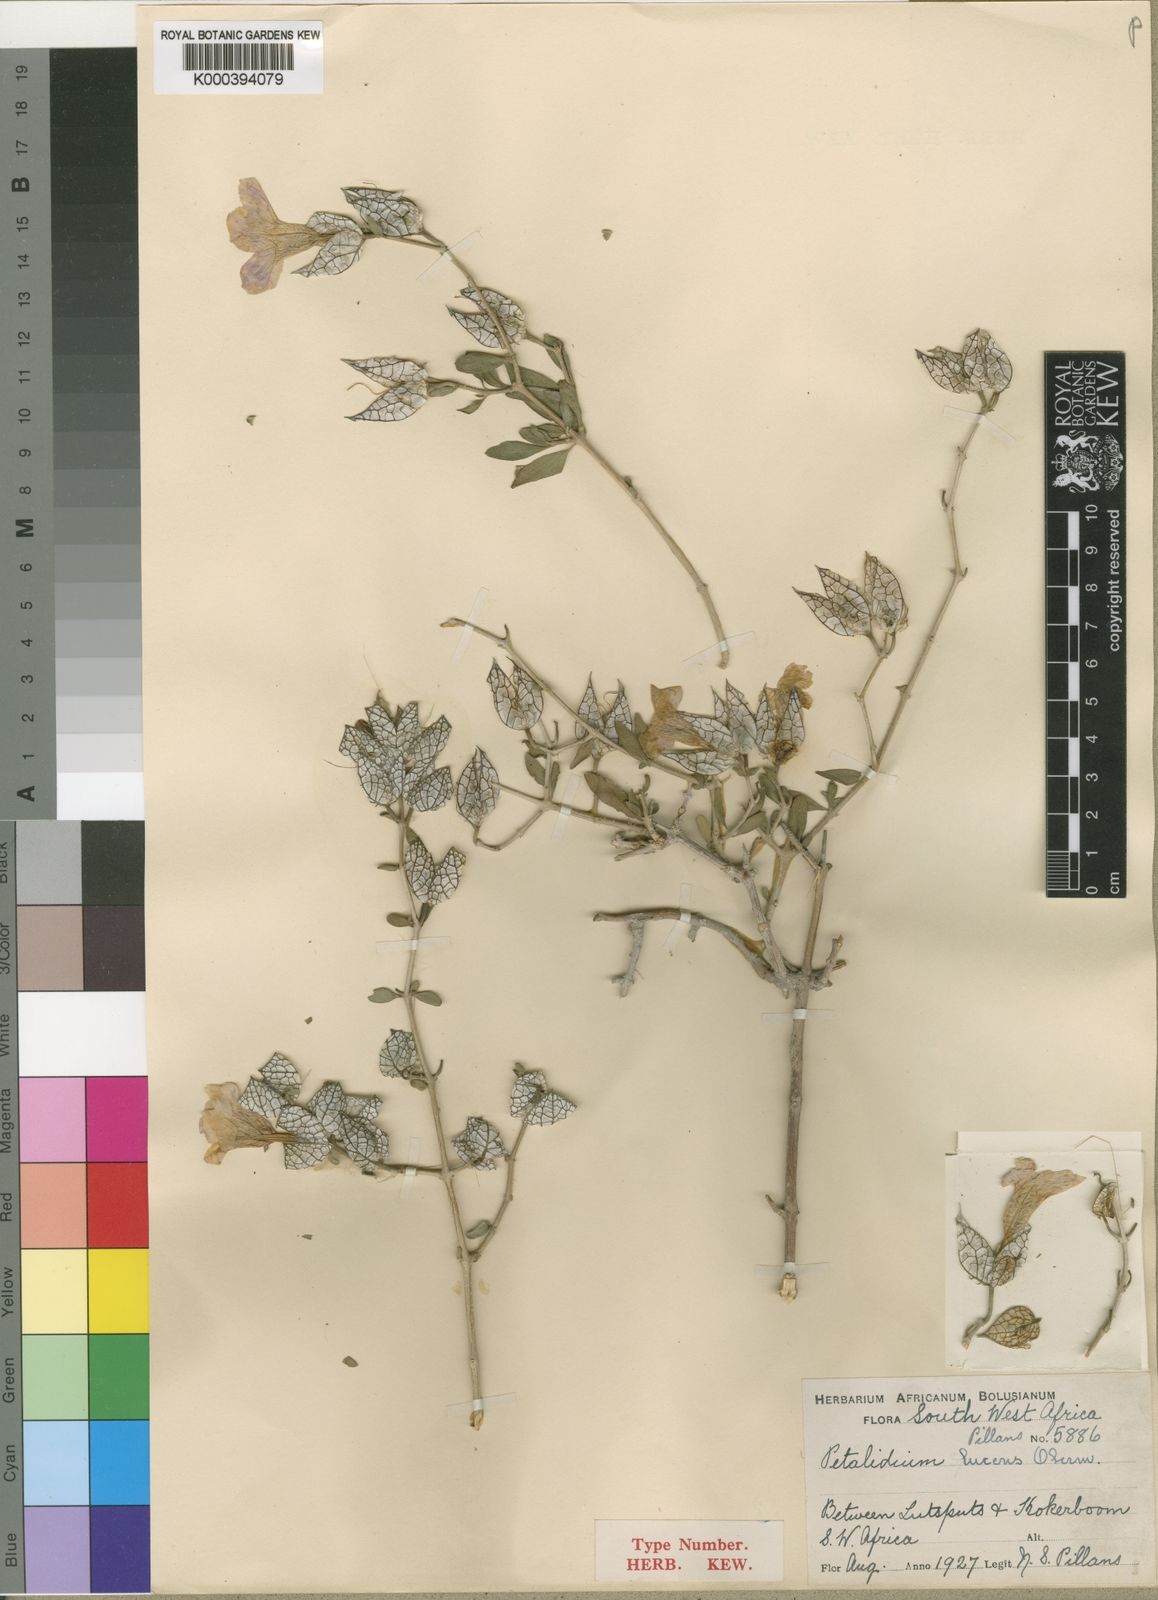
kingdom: Plantae
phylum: Tracheophyta
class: Magnoliopsida
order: Lamiales
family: Acanthaceae
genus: Petalidium
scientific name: Petalidium lucens
